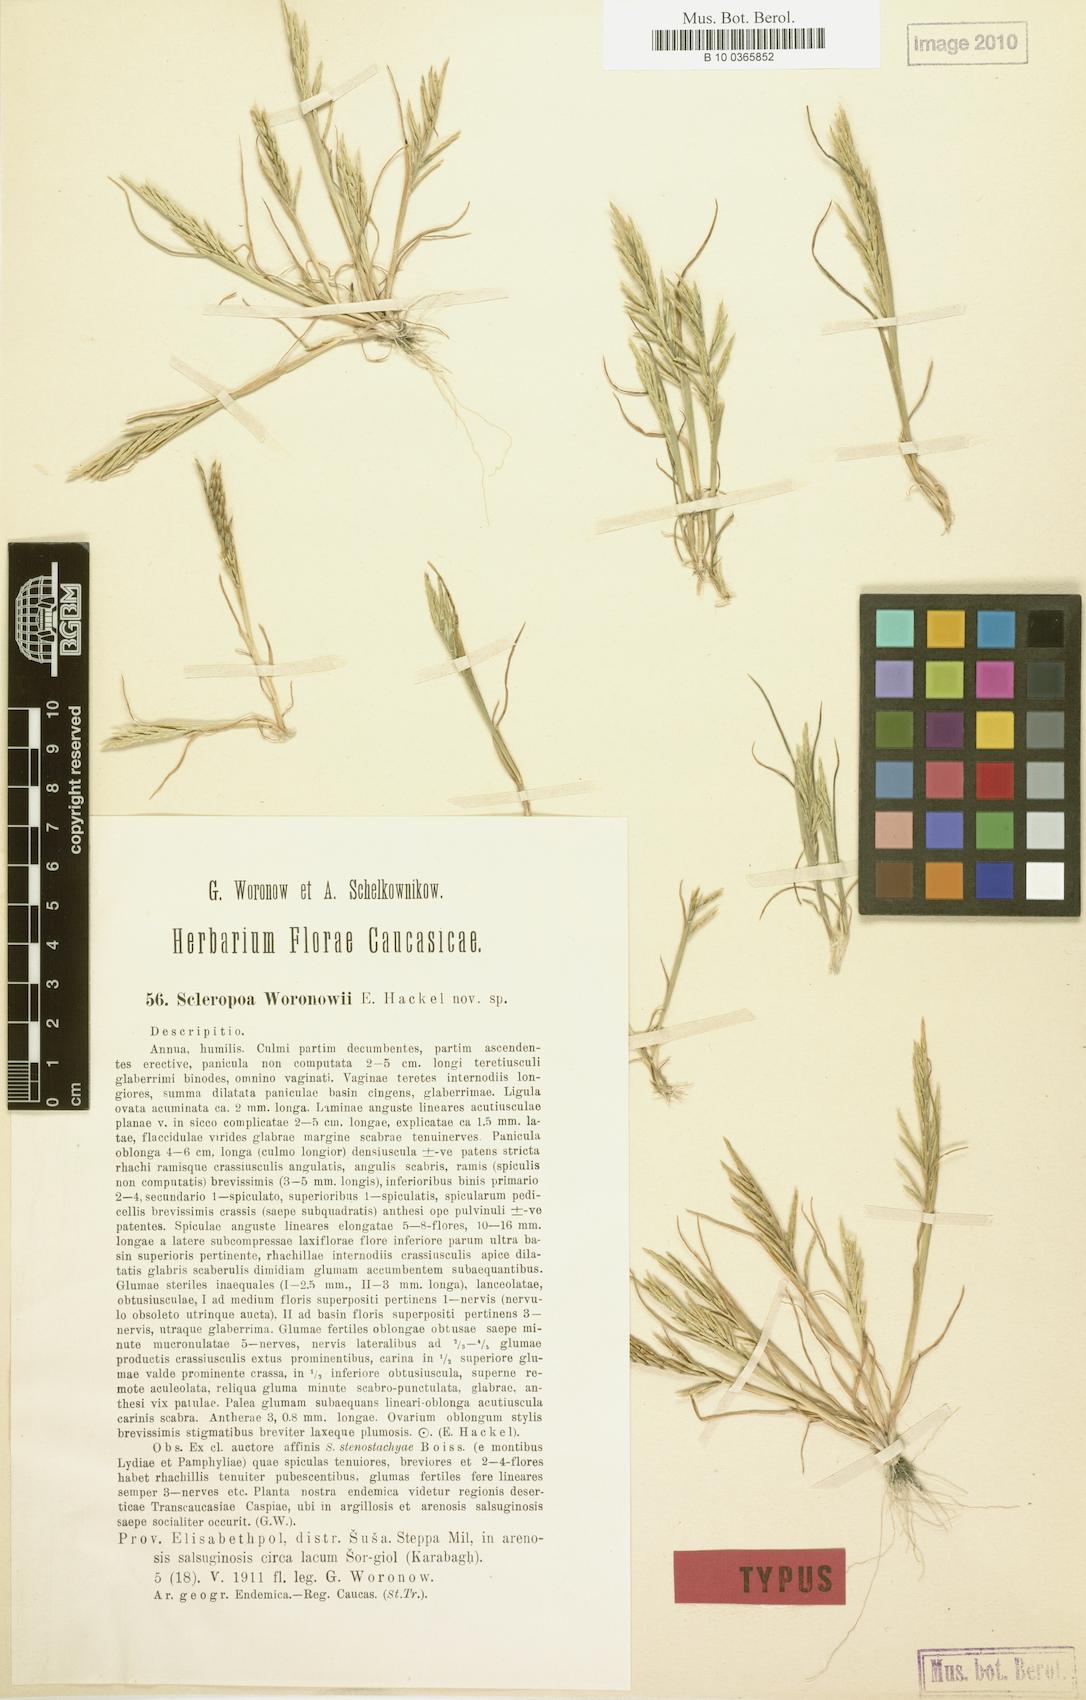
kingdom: Plantae
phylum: Tracheophyta
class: Liliopsida
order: Poales
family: Poaceae
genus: Sclerochloa
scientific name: Sclerochloa woronowii
